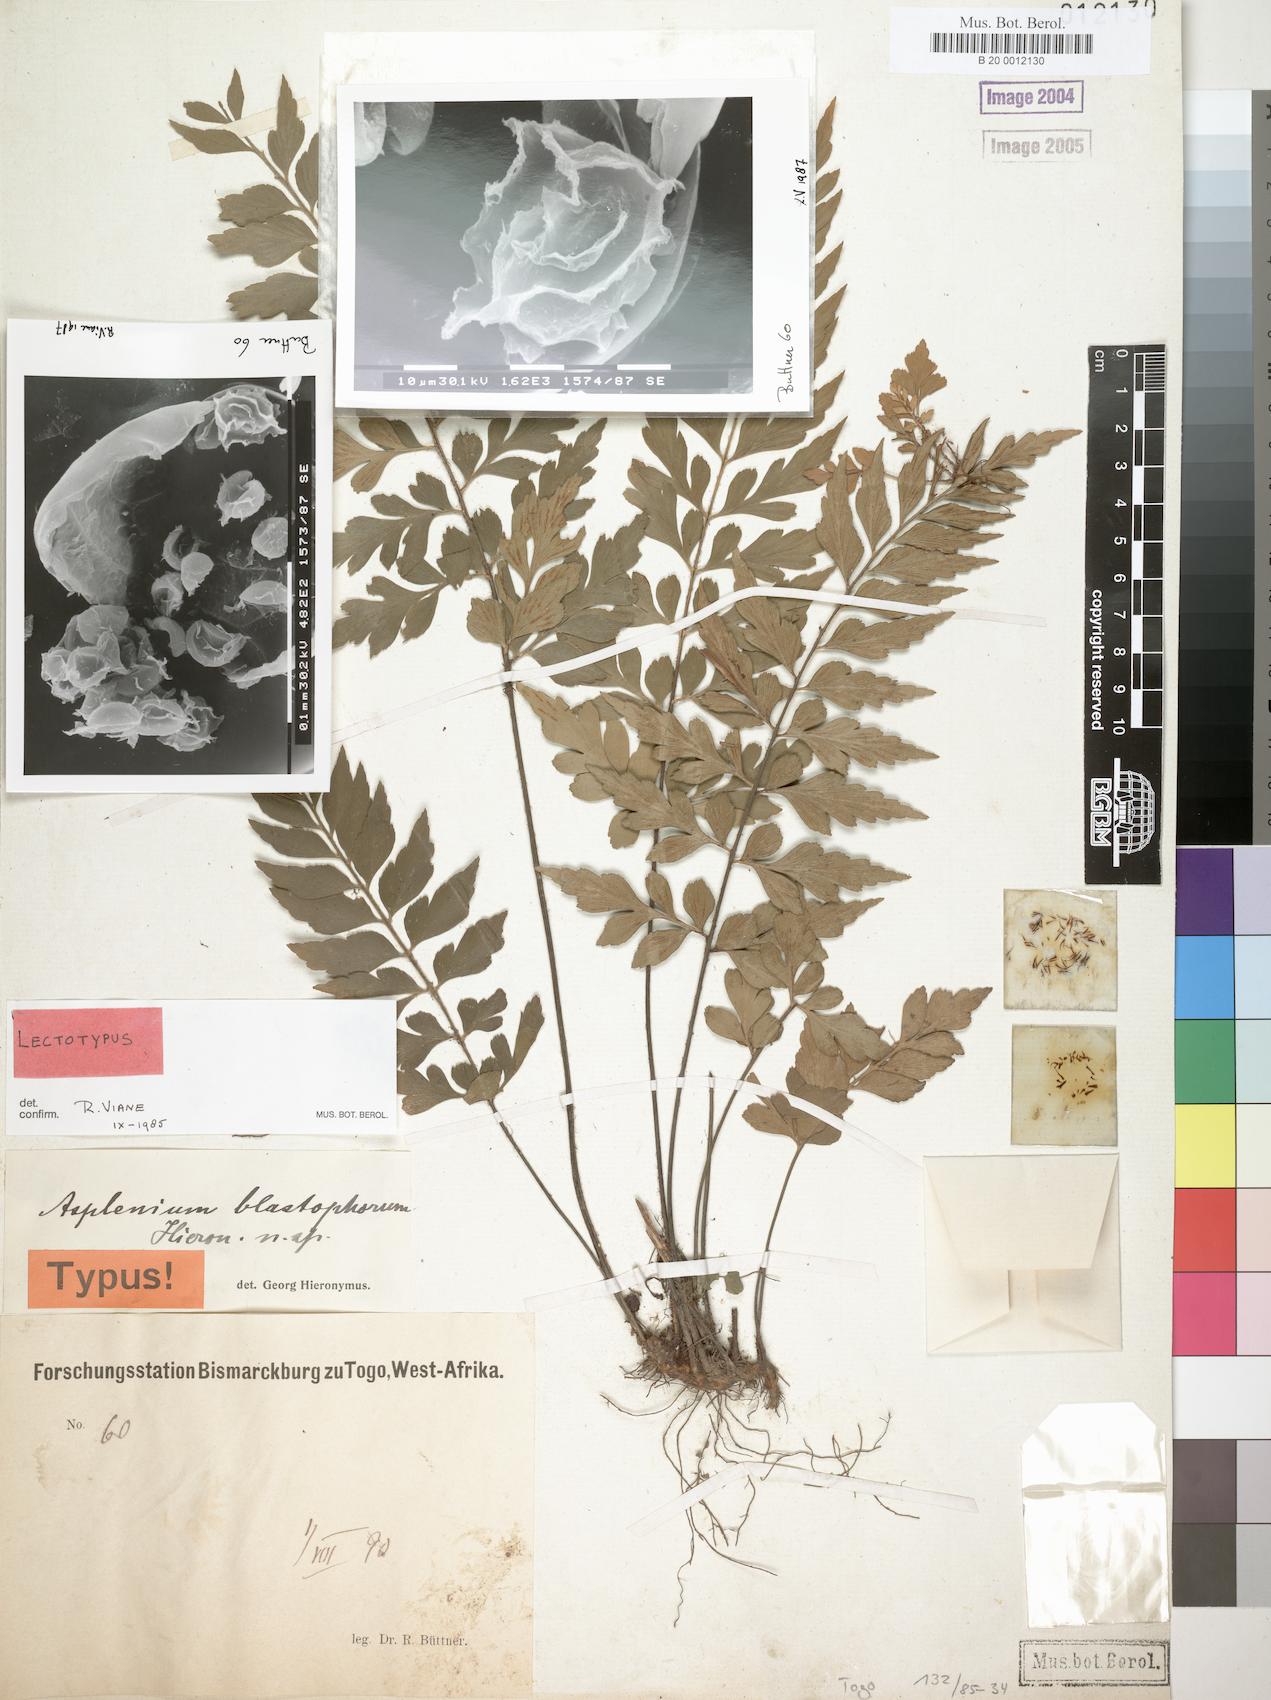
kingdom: Plantae
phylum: Tracheophyta
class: Polypodiopsida
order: Polypodiales
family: Aspleniaceae
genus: Asplenium
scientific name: Asplenium blastophorum
